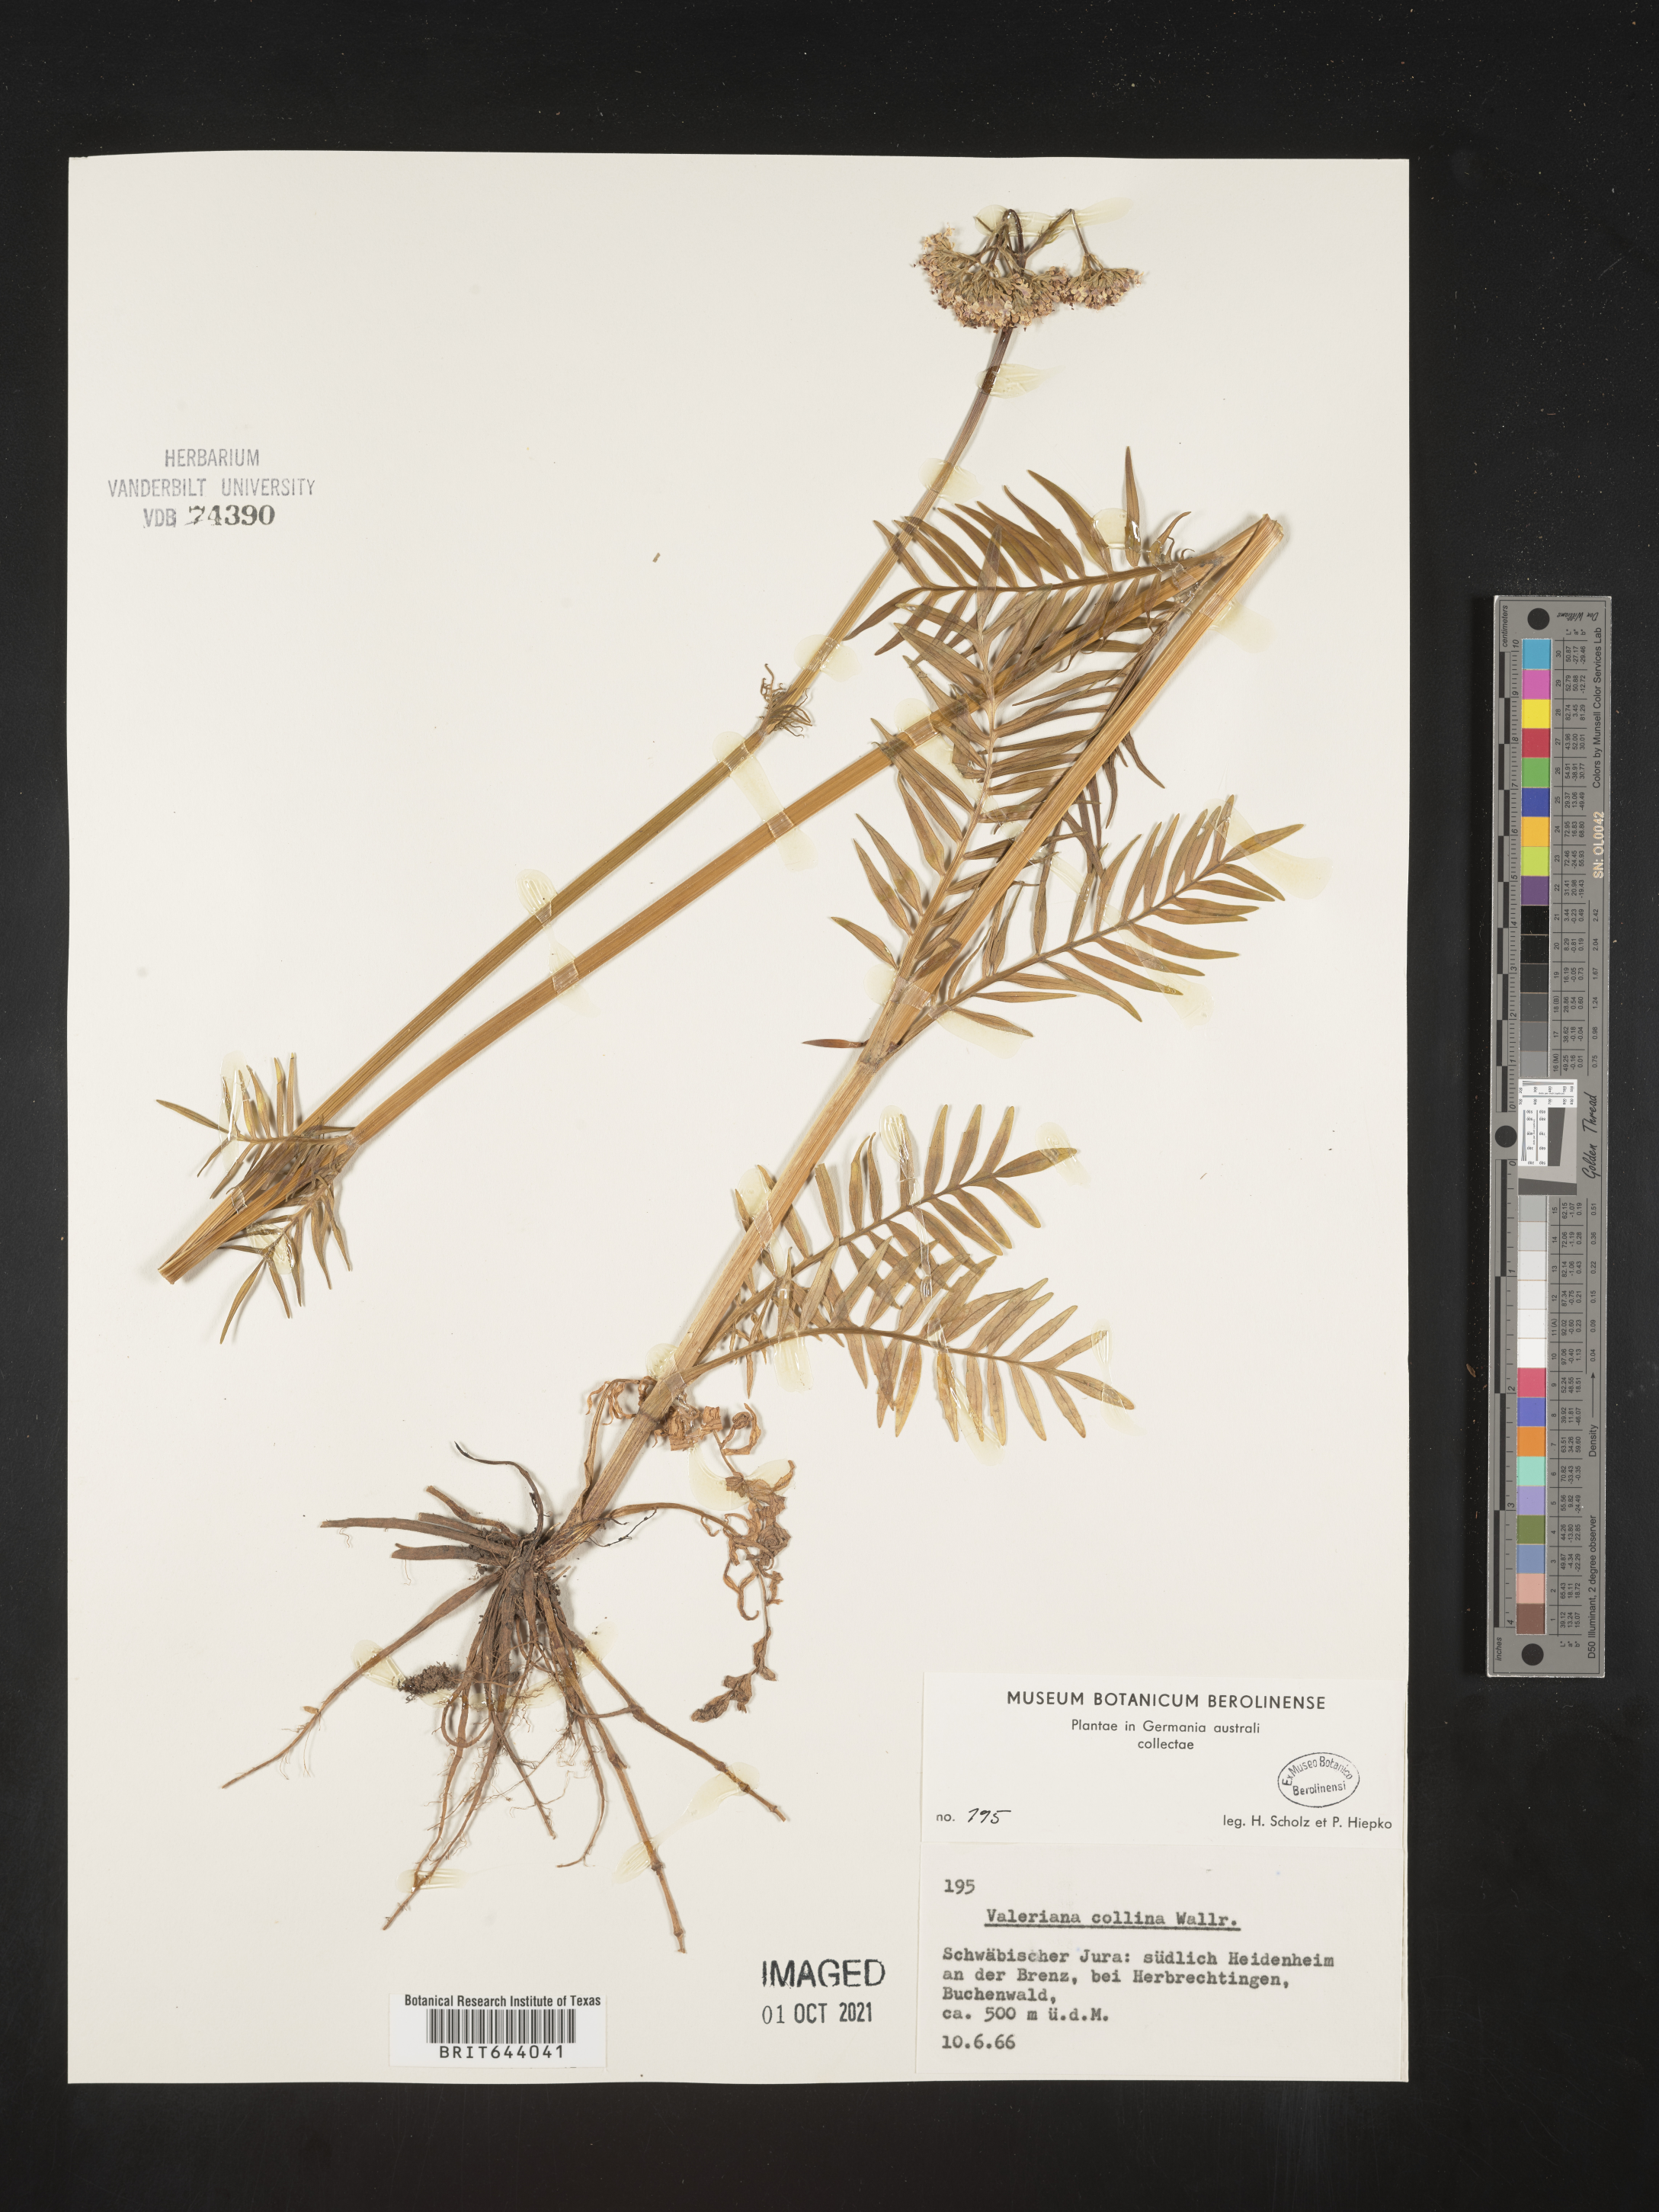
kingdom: Plantae
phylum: Tracheophyta
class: Magnoliopsida
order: Dipsacales
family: Caprifoliaceae
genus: Valeriana
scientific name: Valeriana pratensis
